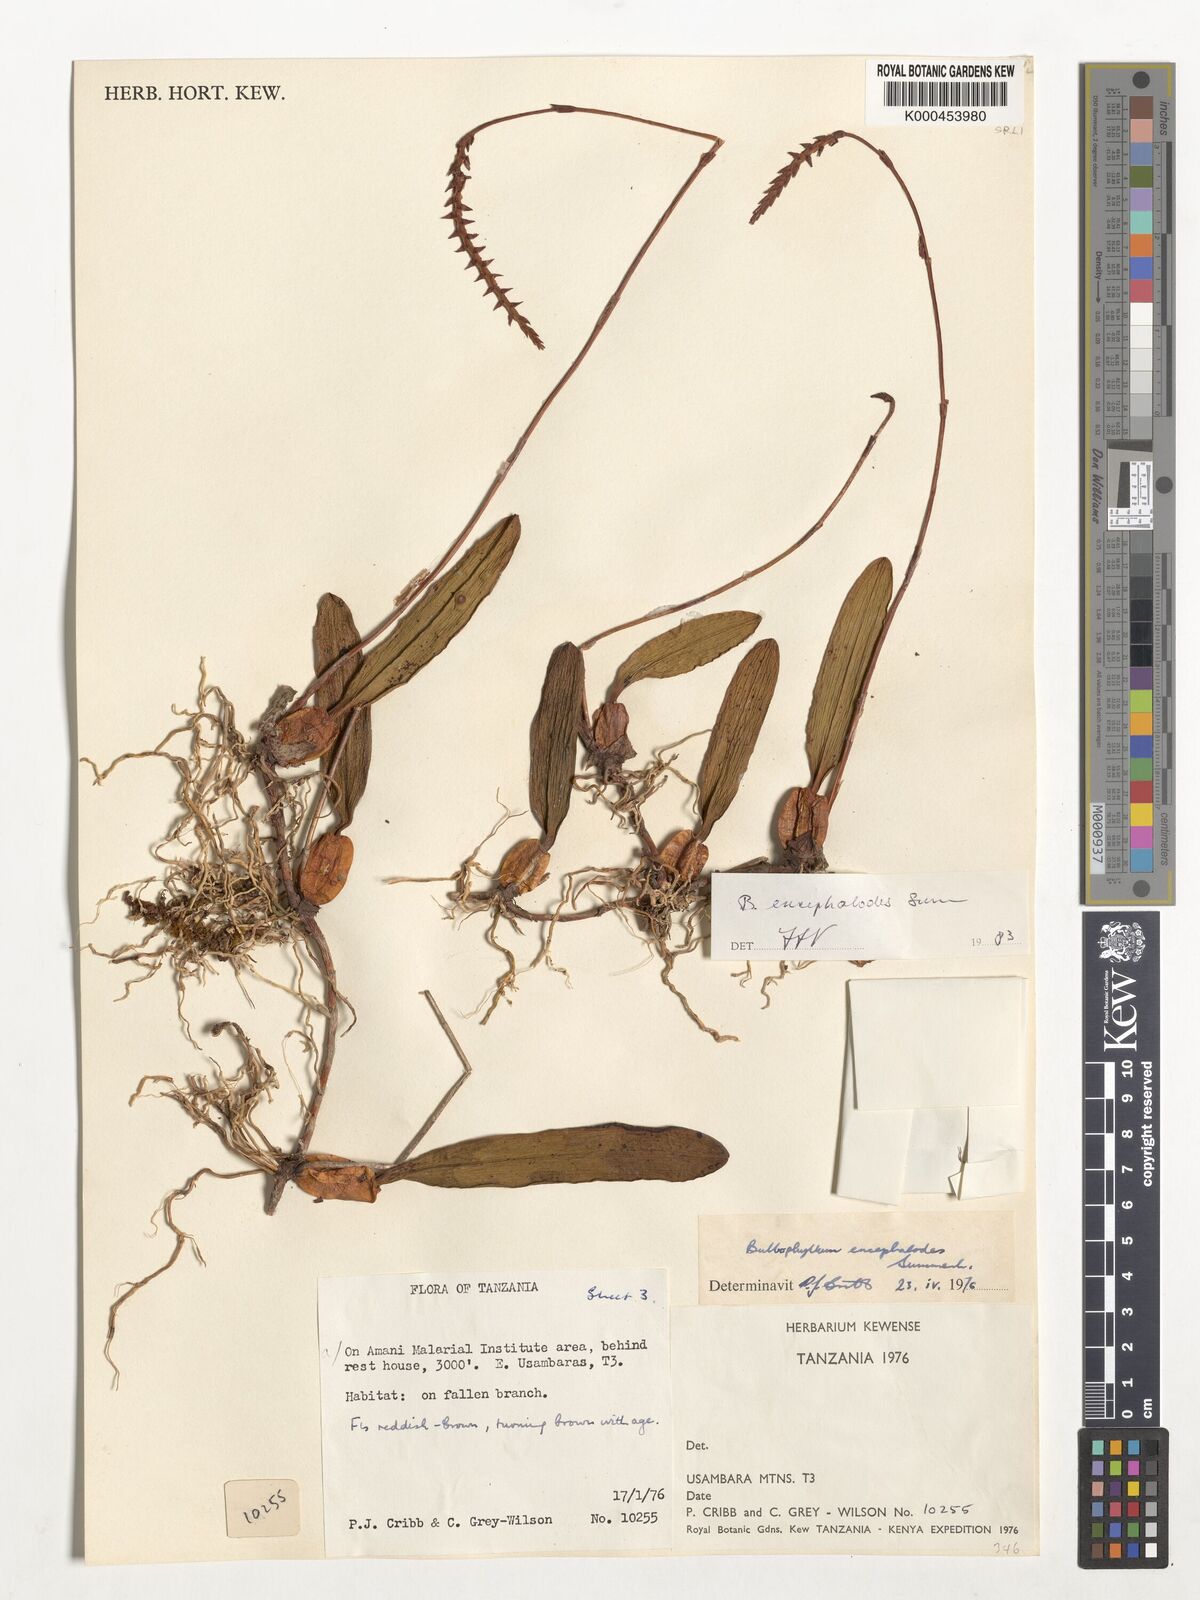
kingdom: Plantae
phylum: Tracheophyta
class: Liliopsida
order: Asparagales
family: Orchidaceae
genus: Bulbophyllum
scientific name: Bulbophyllum encephalodes
